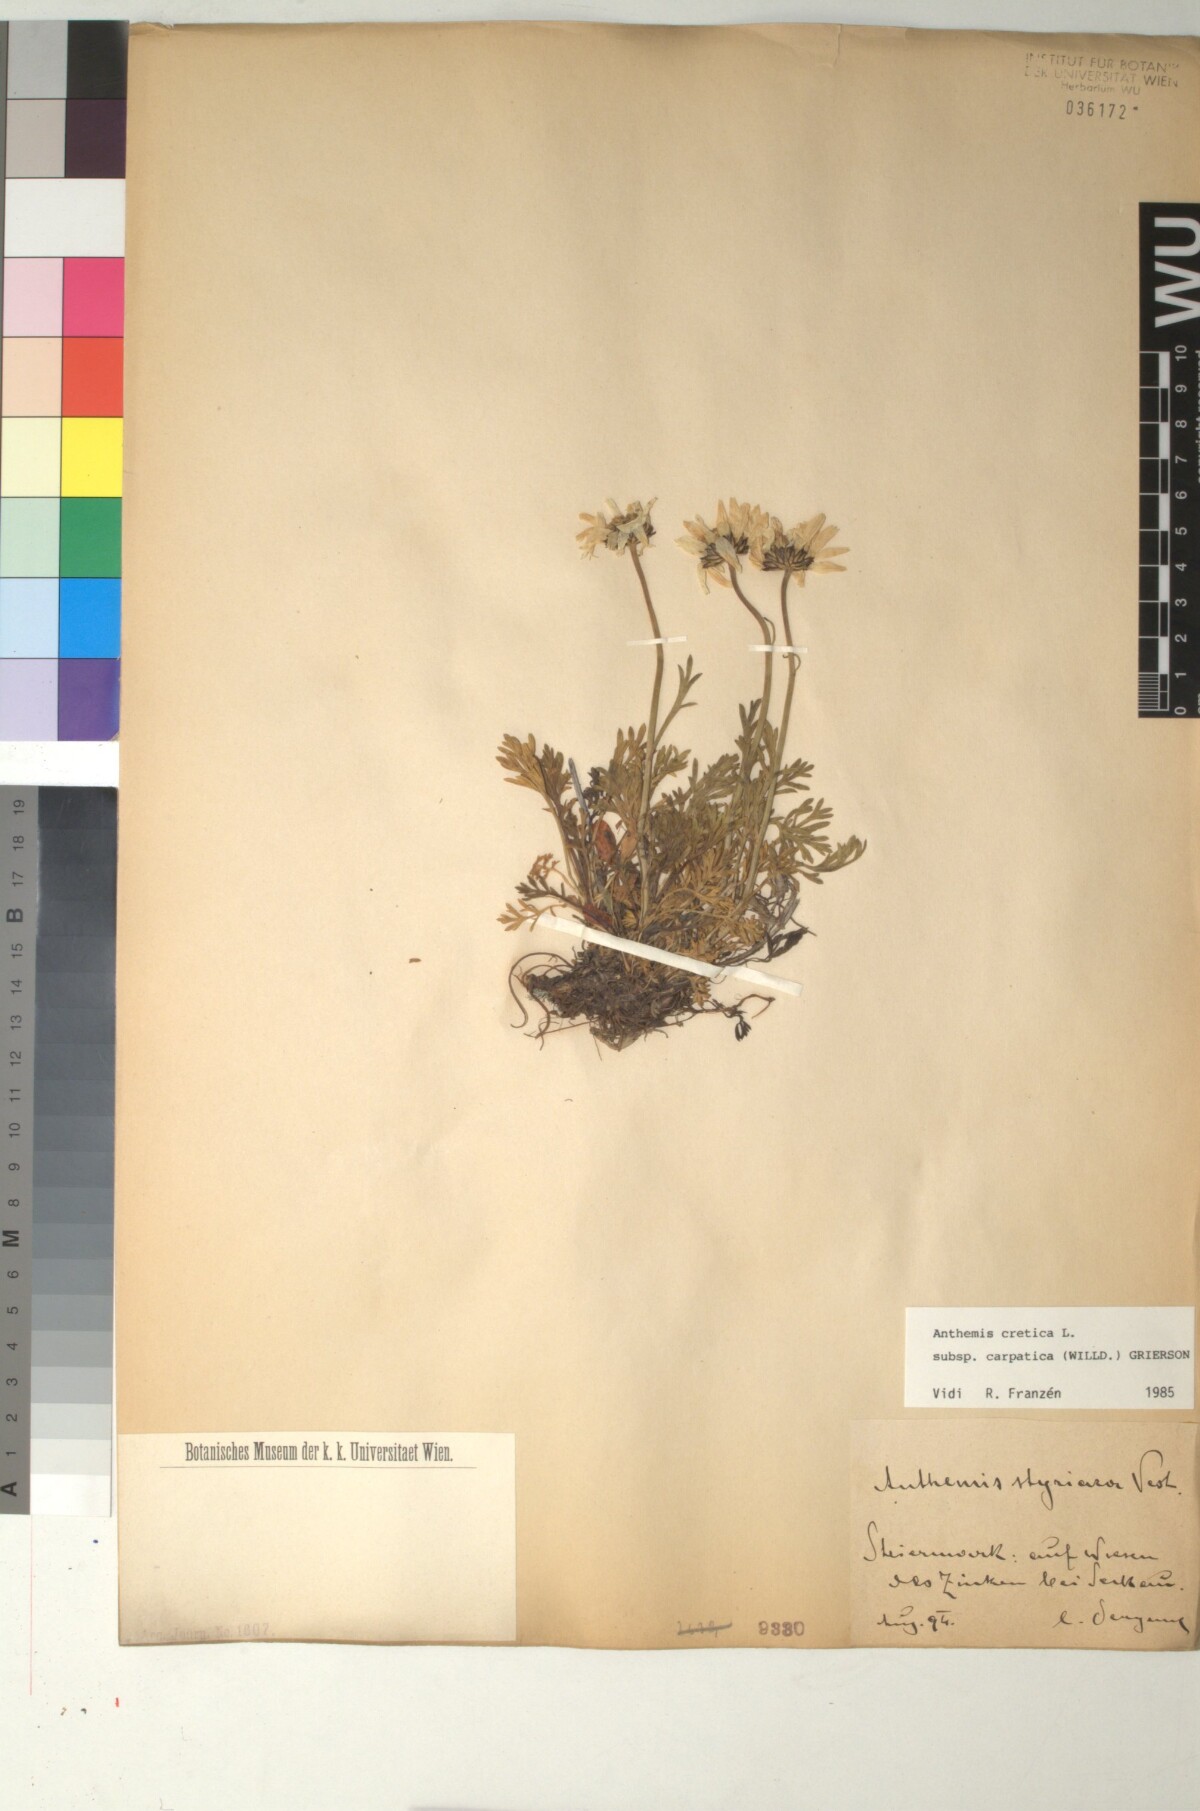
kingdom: Plantae
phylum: Tracheophyta
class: Magnoliopsida
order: Asterales
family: Asteraceae
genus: Anthemis
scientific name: Anthemis cretica
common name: Mountain dog-daisy
